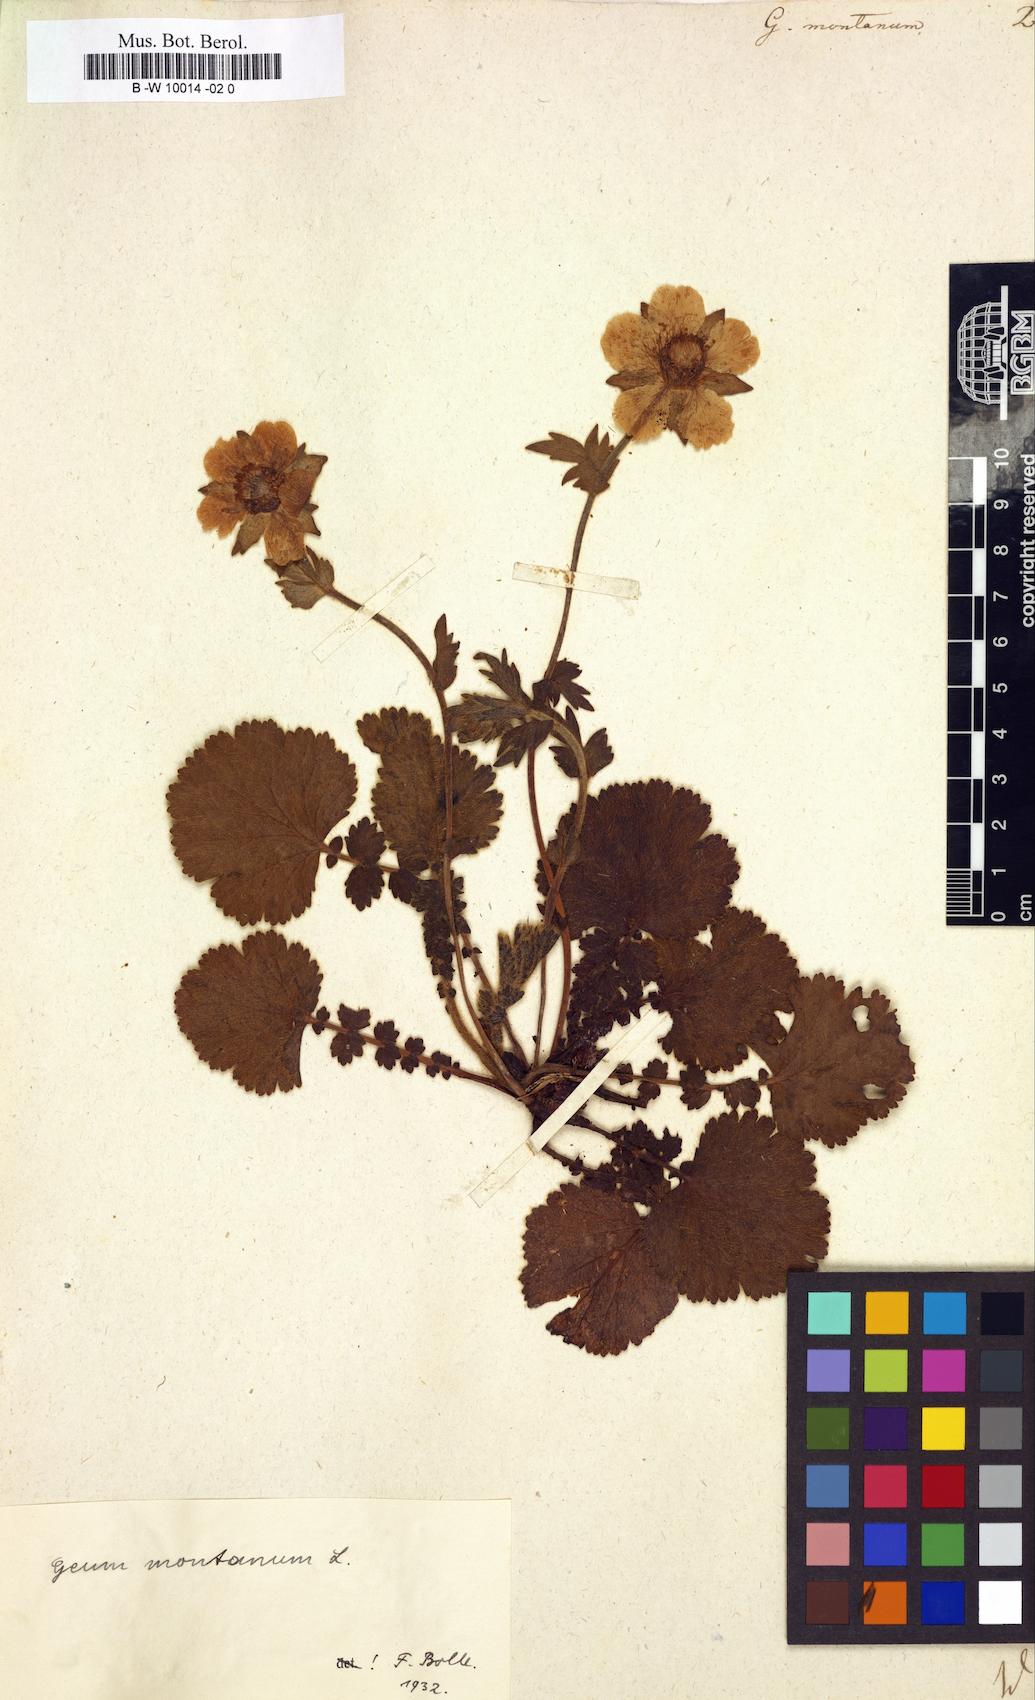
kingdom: Plantae
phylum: Tracheophyta
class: Magnoliopsida
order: Rosales
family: Rosaceae
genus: Geum
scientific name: Geum montanum
